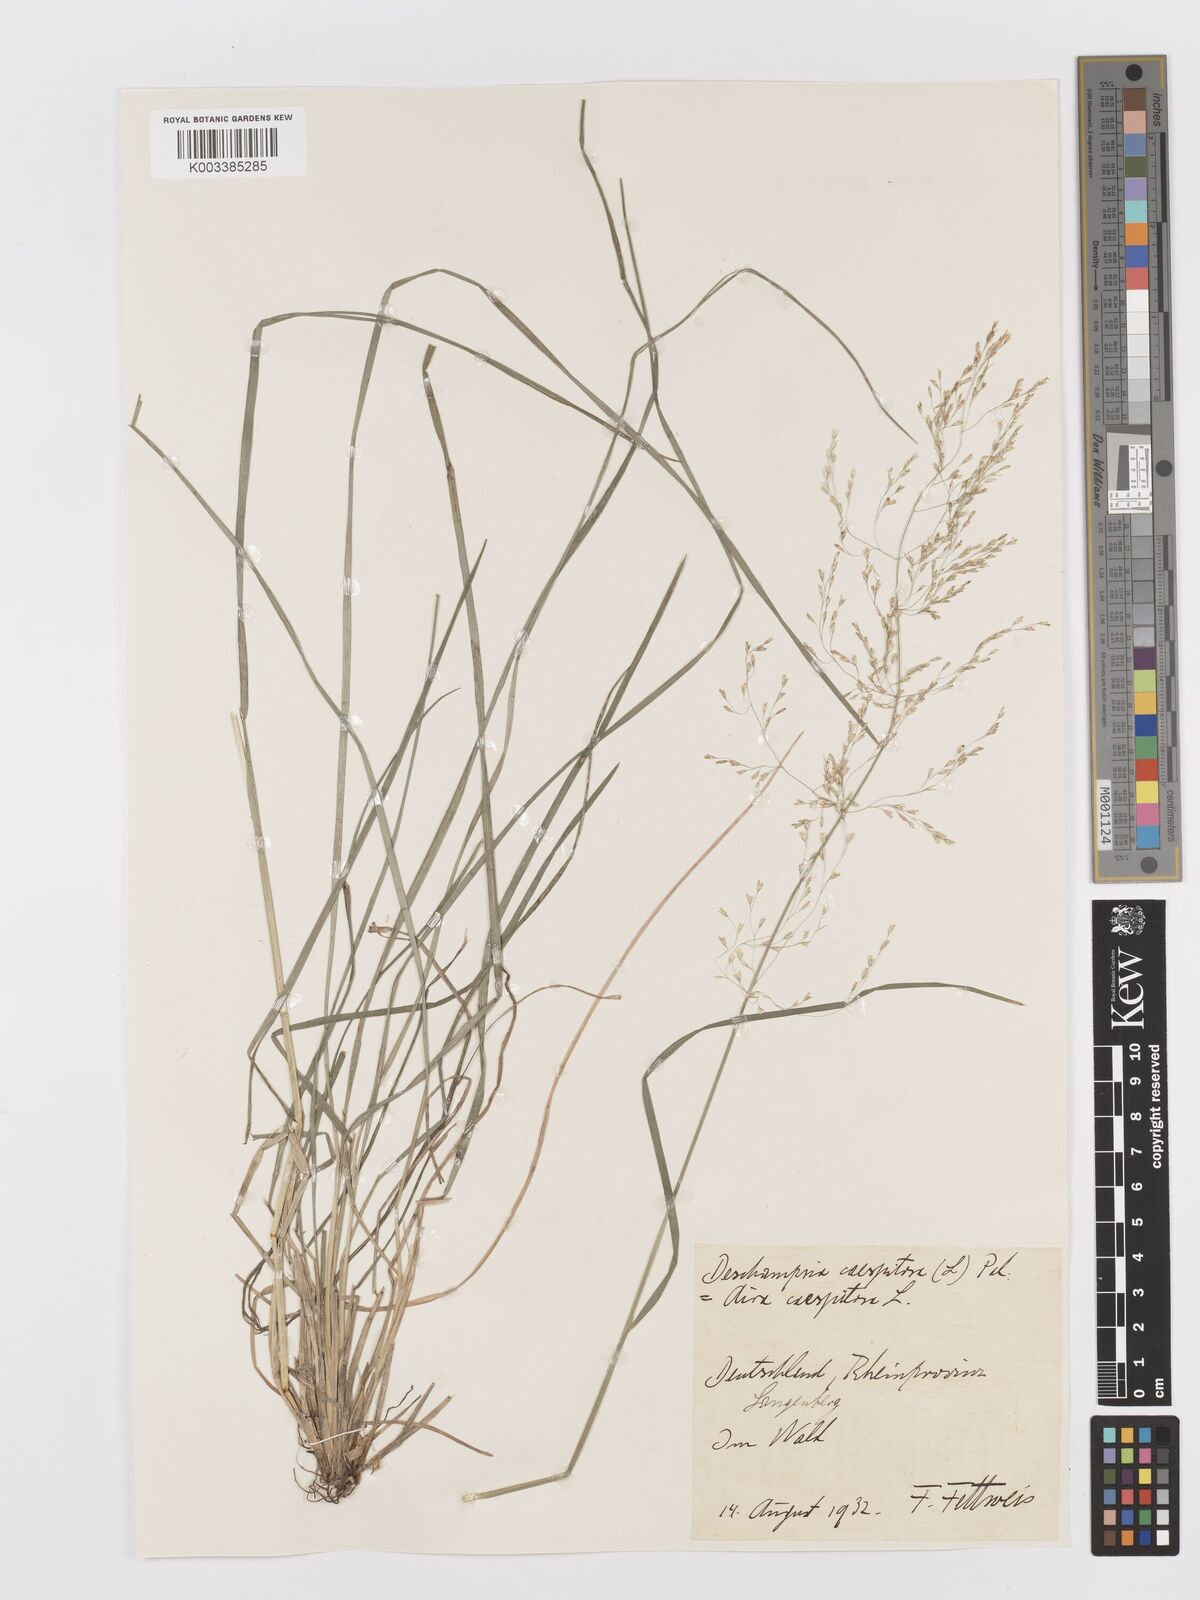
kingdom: Plantae
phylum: Tracheophyta
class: Liliopsida
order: Poales
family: Poaceae
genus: Deschampsia
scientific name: Deschampsia cespitosa
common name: Tufted hair-grass
